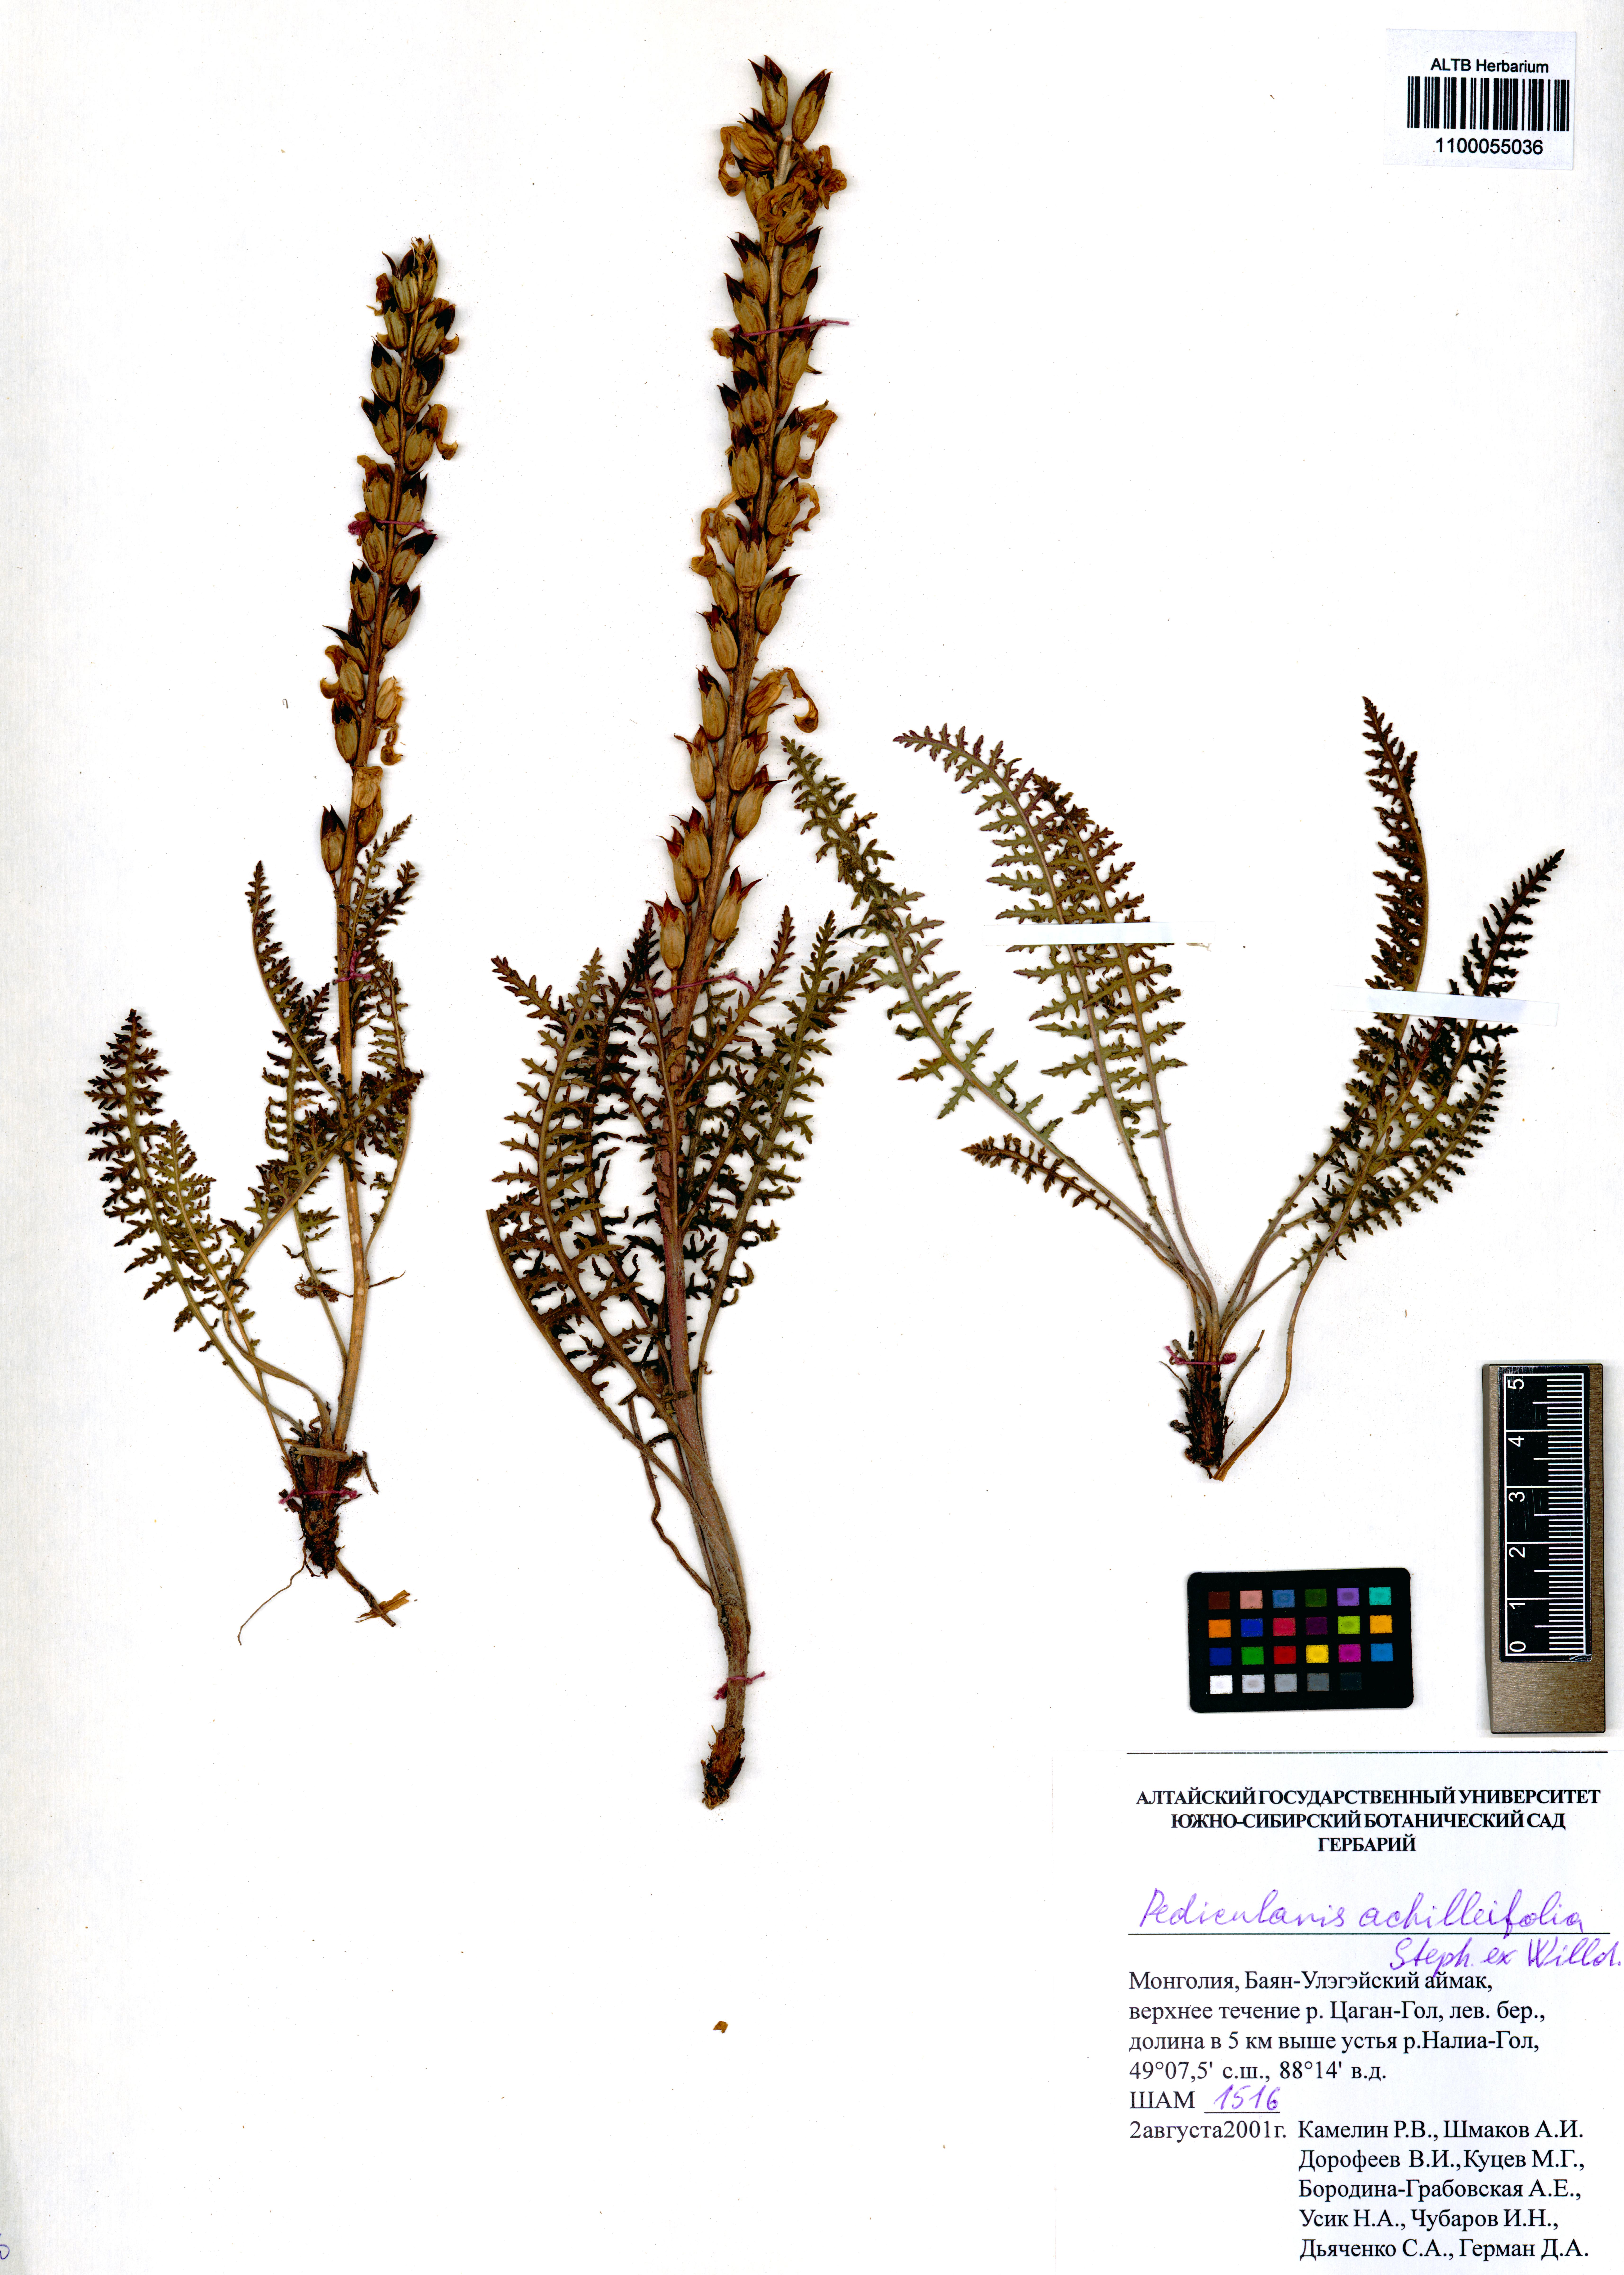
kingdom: Plantae
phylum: Tracheophyta
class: Magnoliopsida
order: Lamiales
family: Orobanchaceae
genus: Pedicularis
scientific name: Pedicularis achilleifolia
